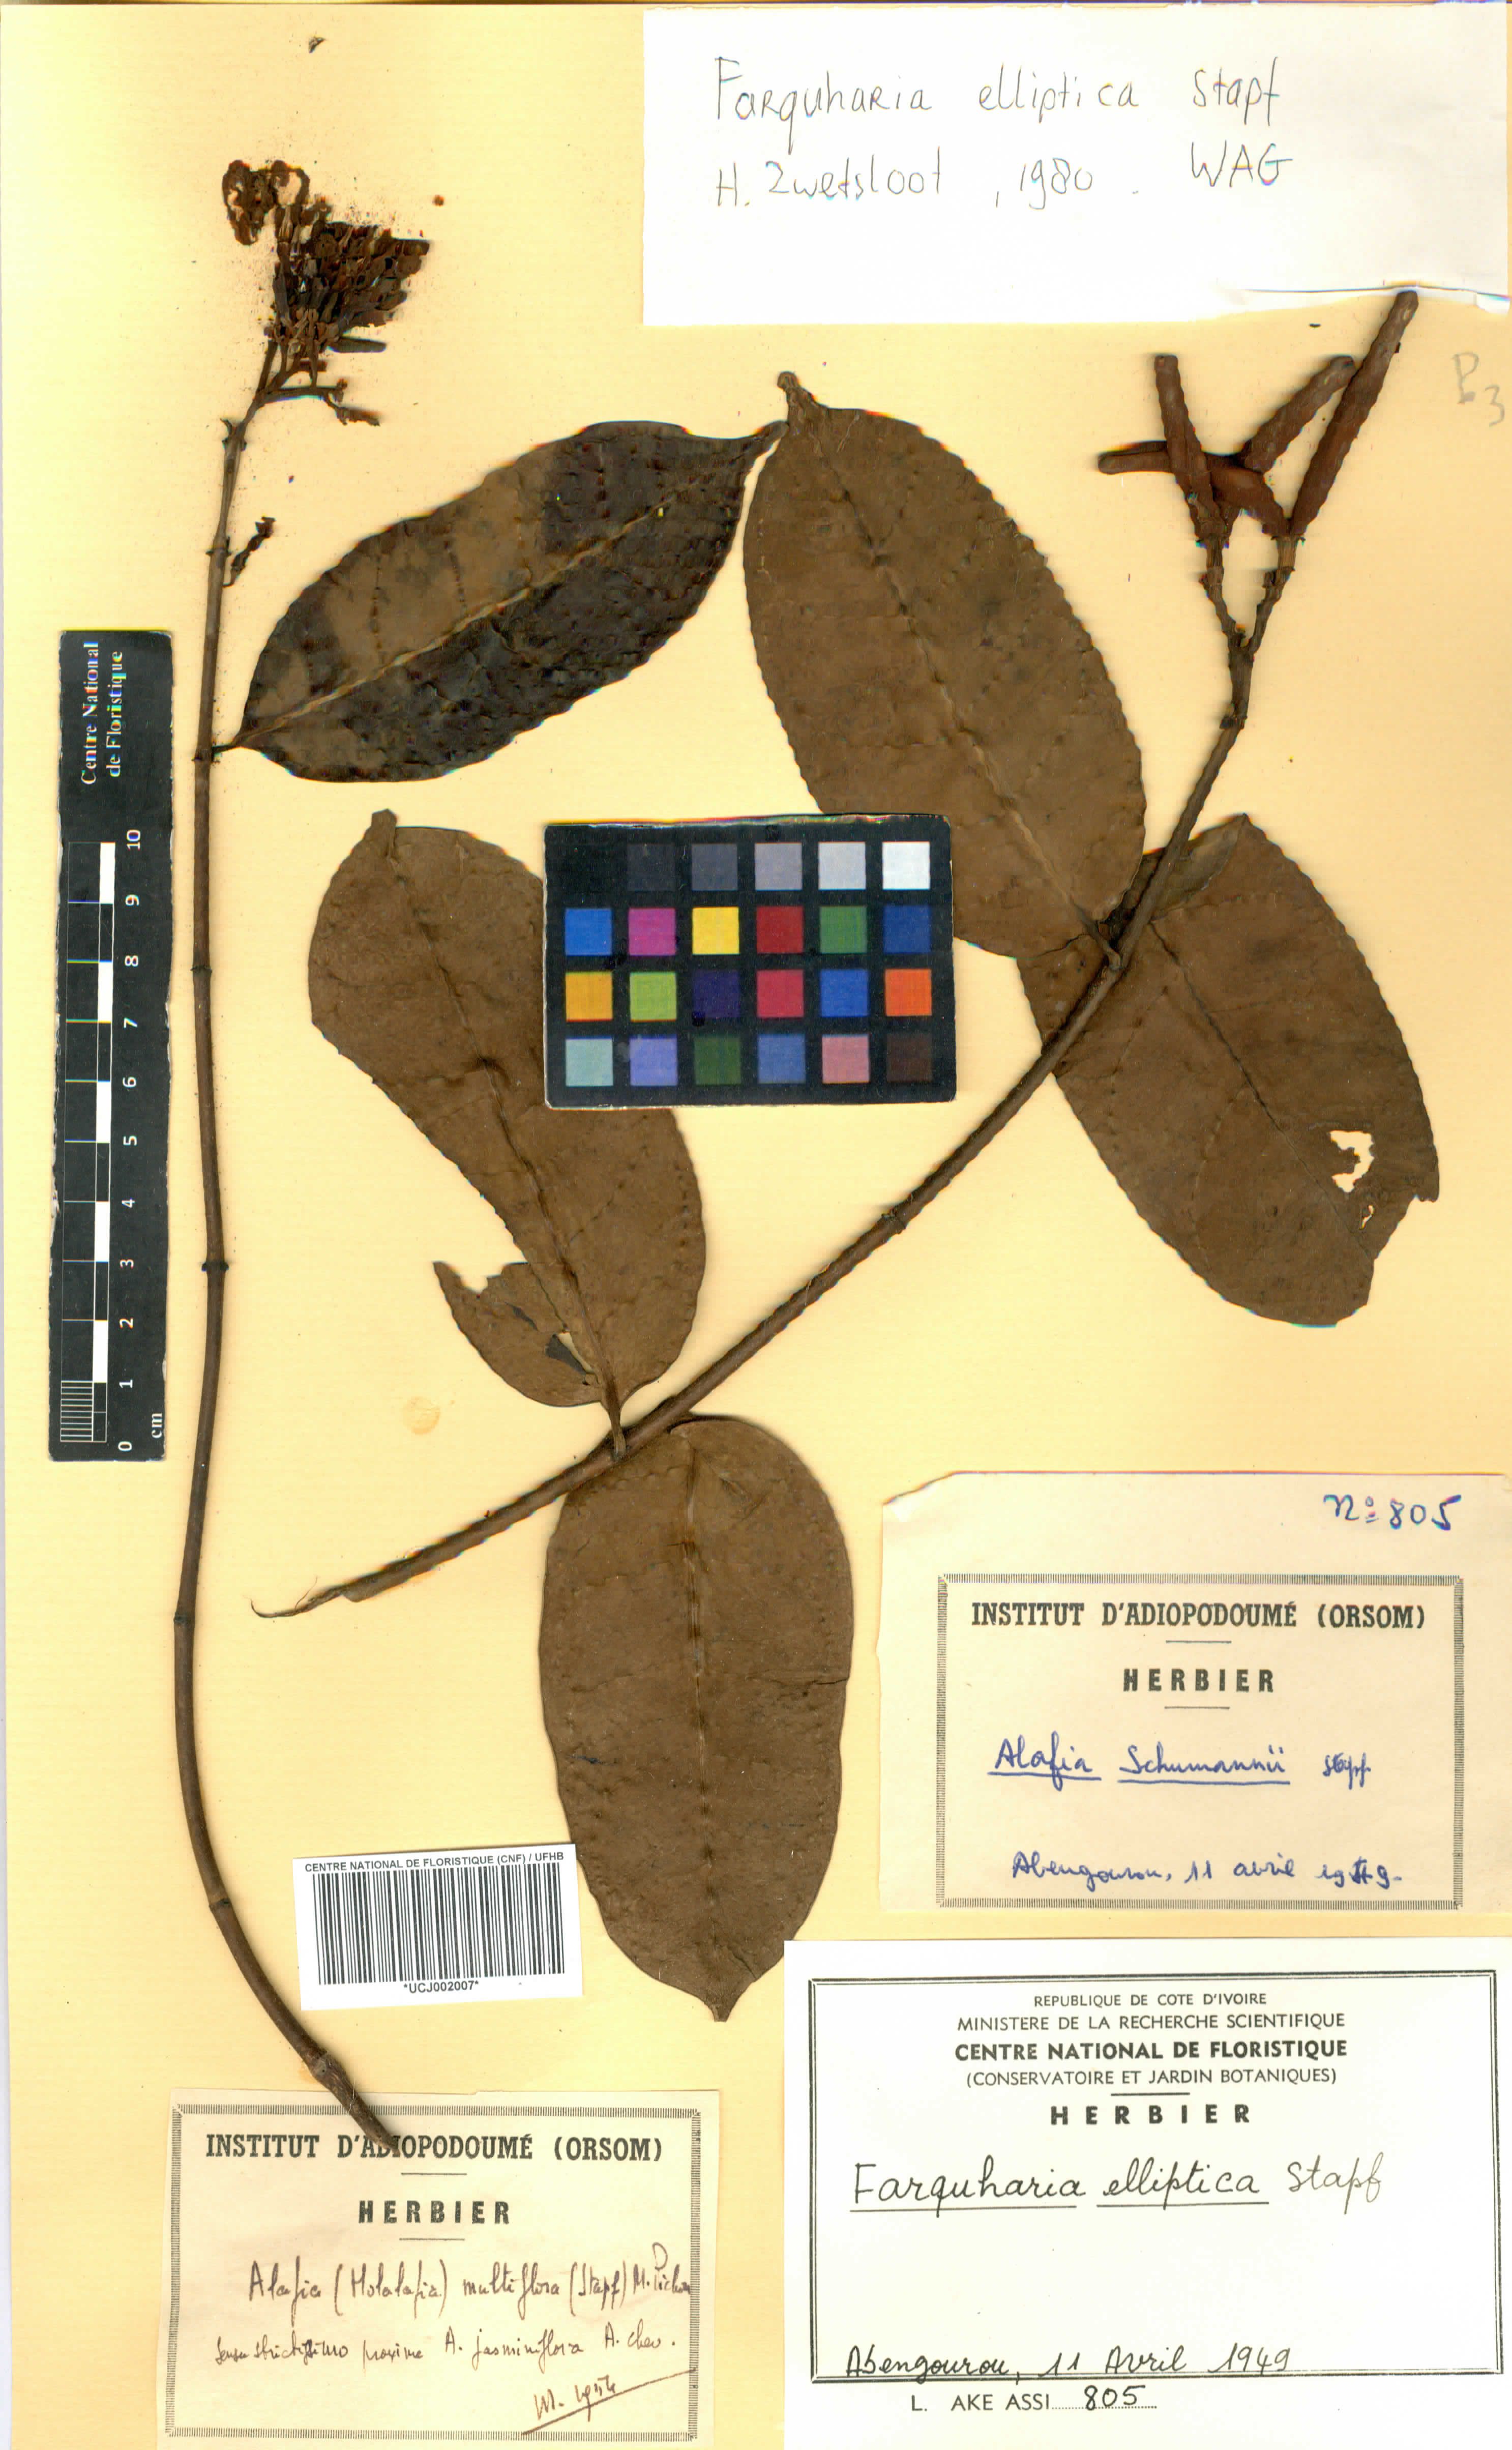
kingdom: Plantae
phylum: Tracheophyta
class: Magnoliopsida
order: Gentianales
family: Apocynaceae
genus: Farquharia
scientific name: Farquharia elliptica
